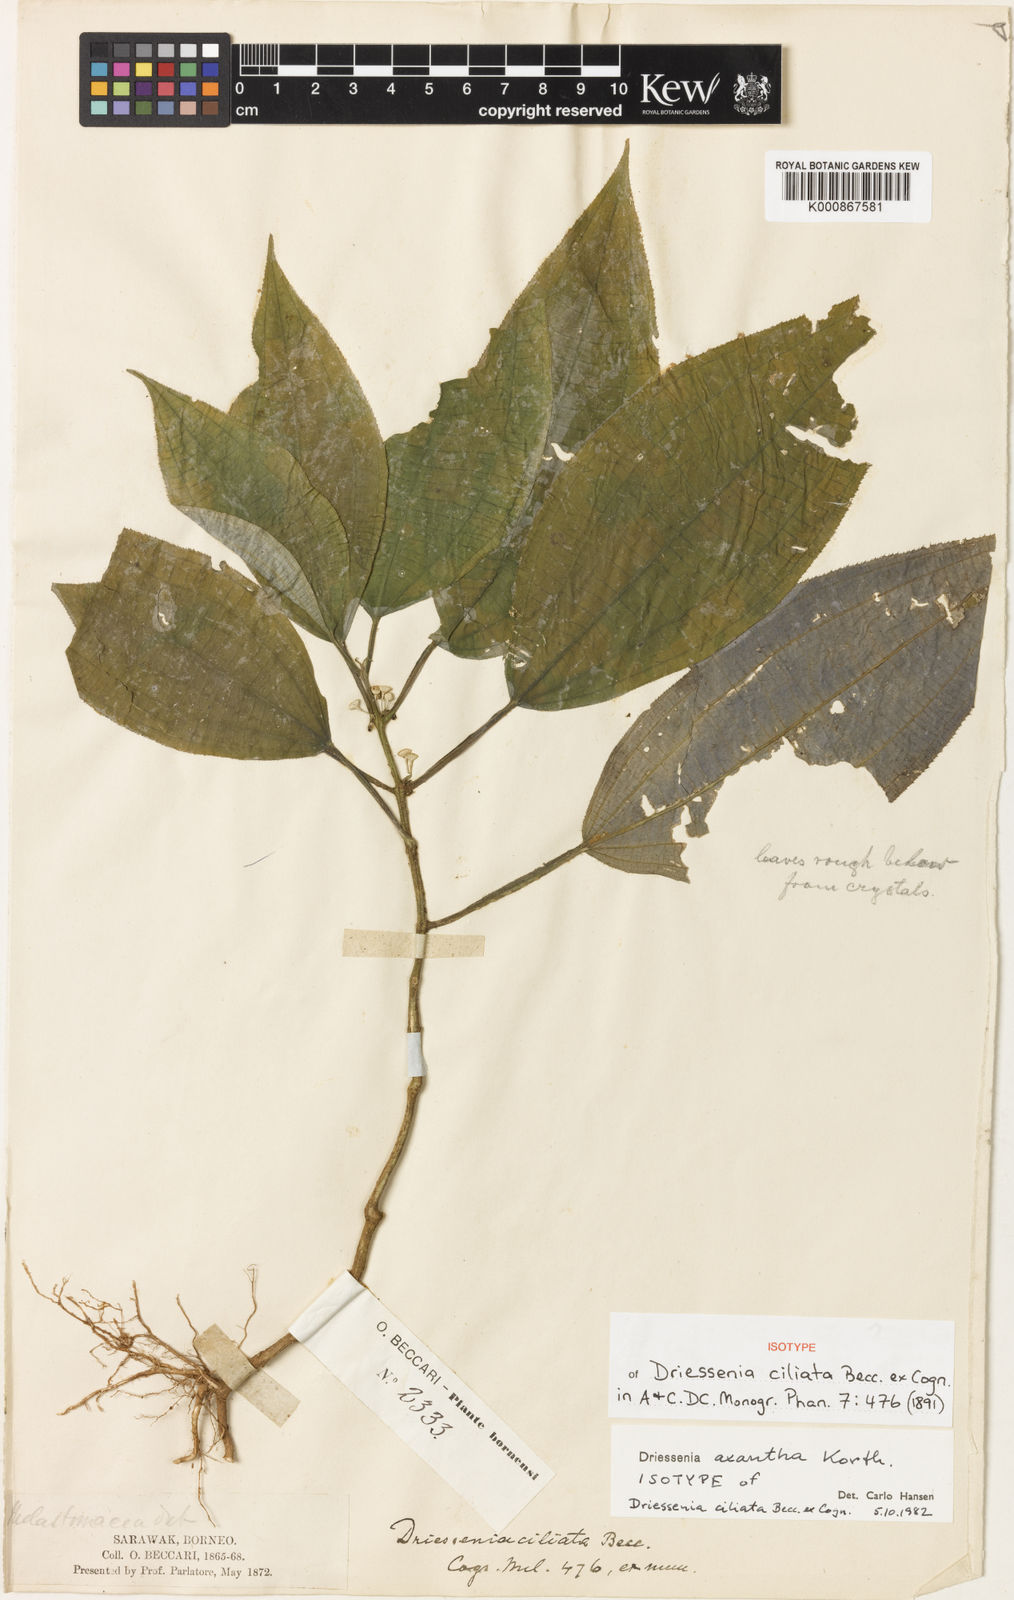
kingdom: Plantae
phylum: Tracheophyta
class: Magnoliopsida
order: Myrtales
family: Melastomataceae
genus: Driessenia
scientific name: Driessenia axantha
